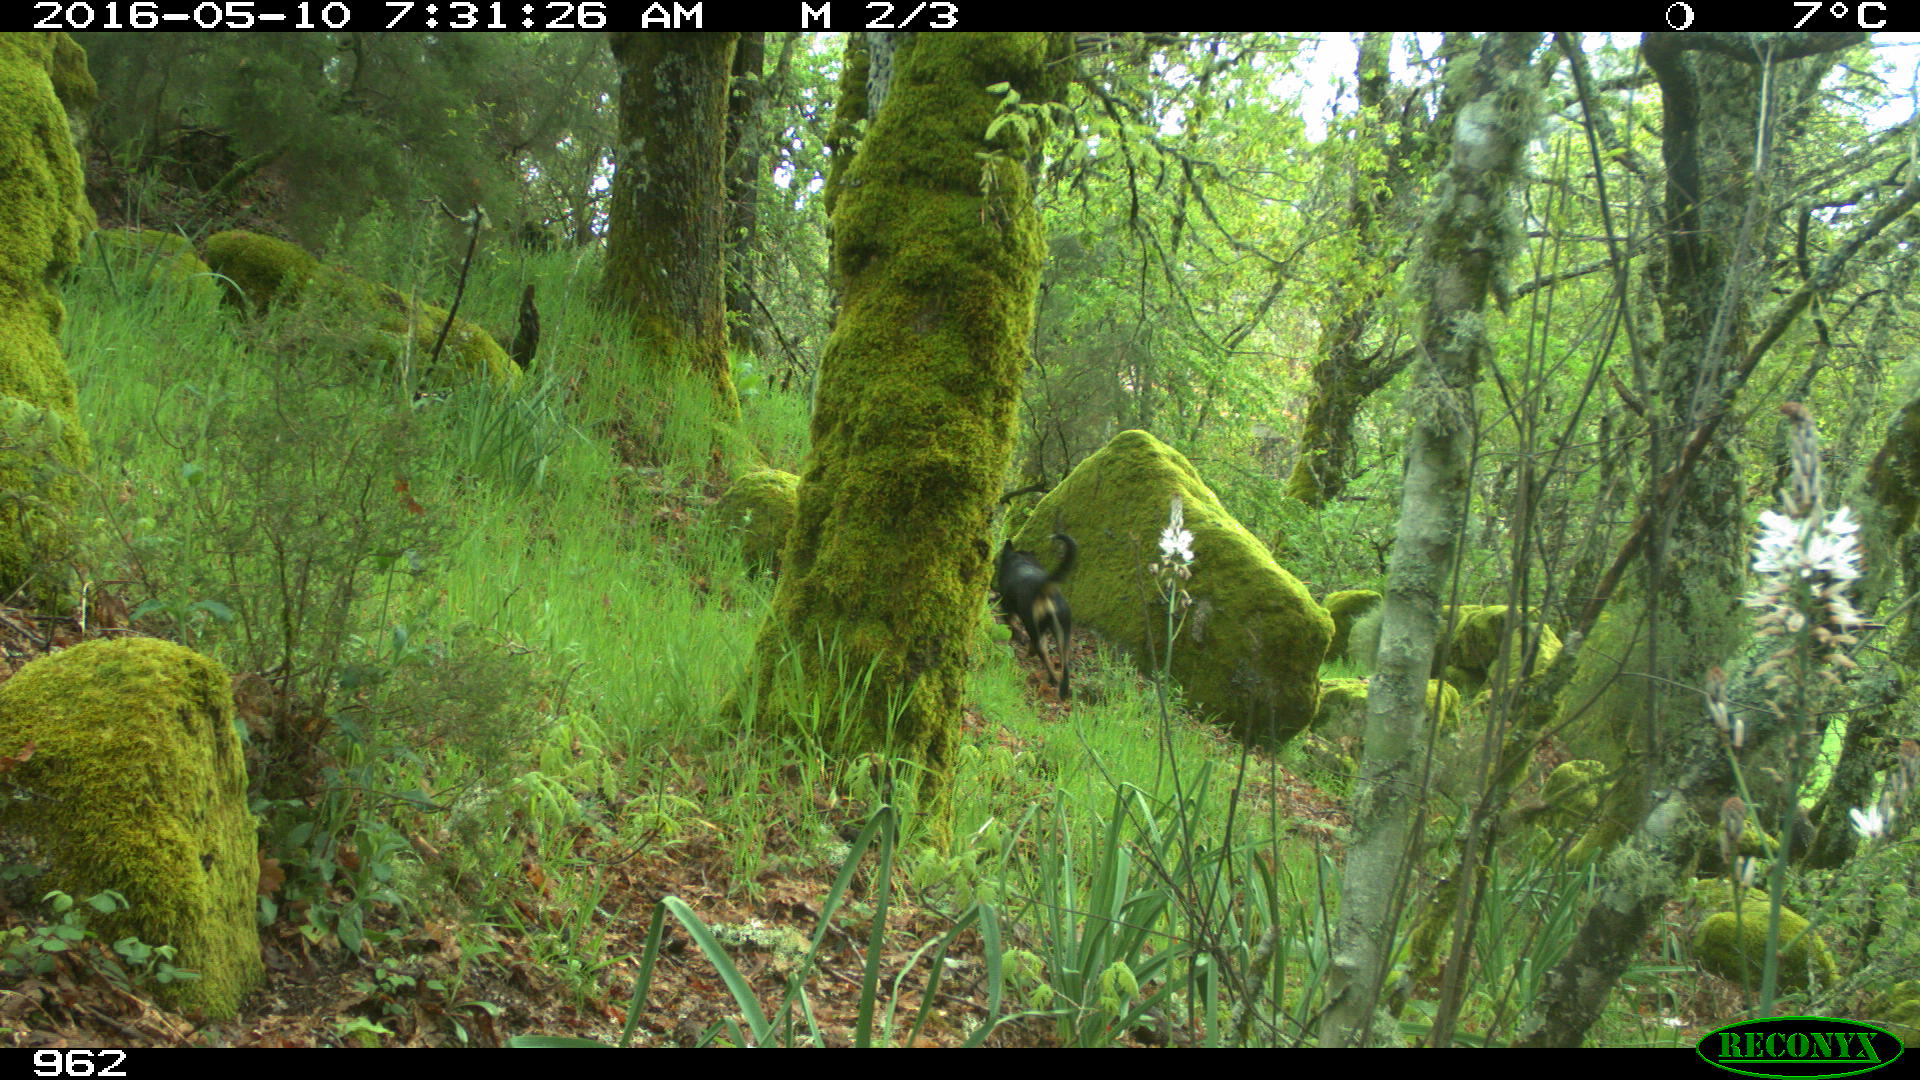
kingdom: Animalia
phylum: Chordata
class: Mammalia
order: Artiodactyla
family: Cervidae
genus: Capreolus
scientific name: Capreolus capreolus
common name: Western roe deer
